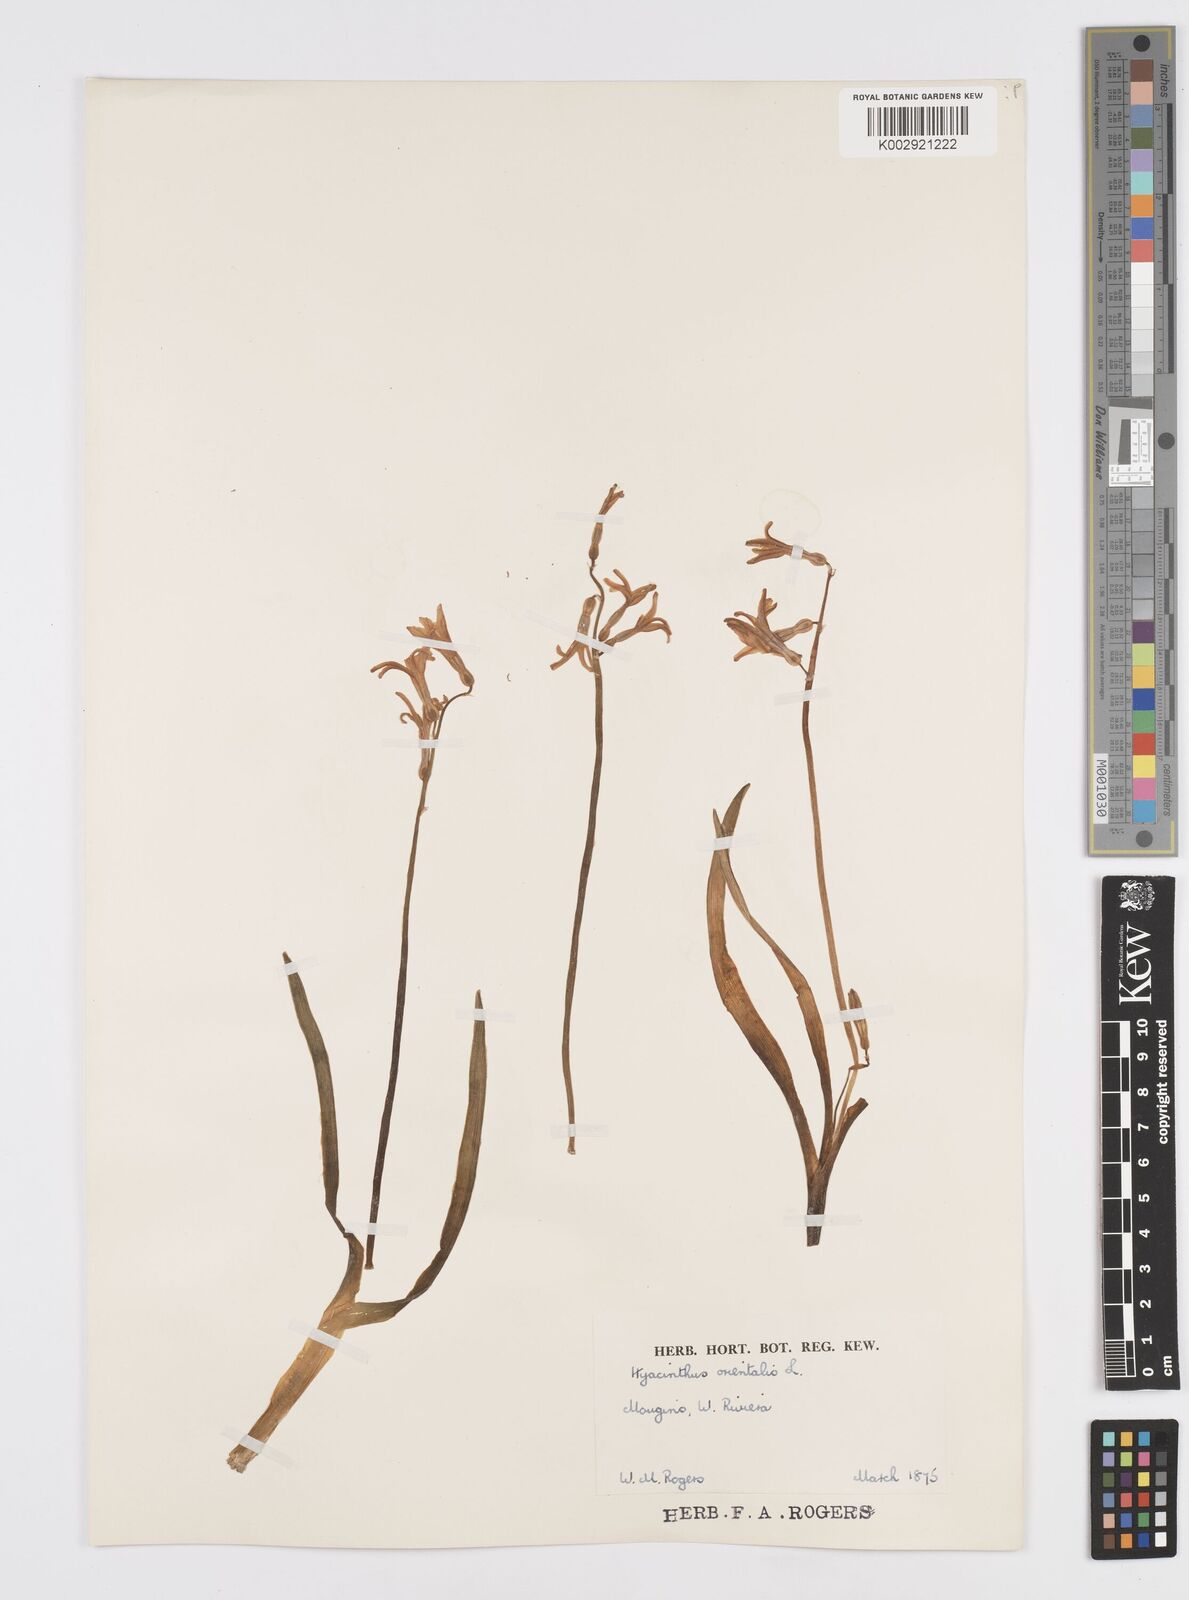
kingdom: Plantae
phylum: Tracheophyta
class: Liliopsida
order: Asparagales
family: Asparagaceae
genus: Hyacinthus
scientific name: Hyacinthus orientalis
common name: Hyacinth
